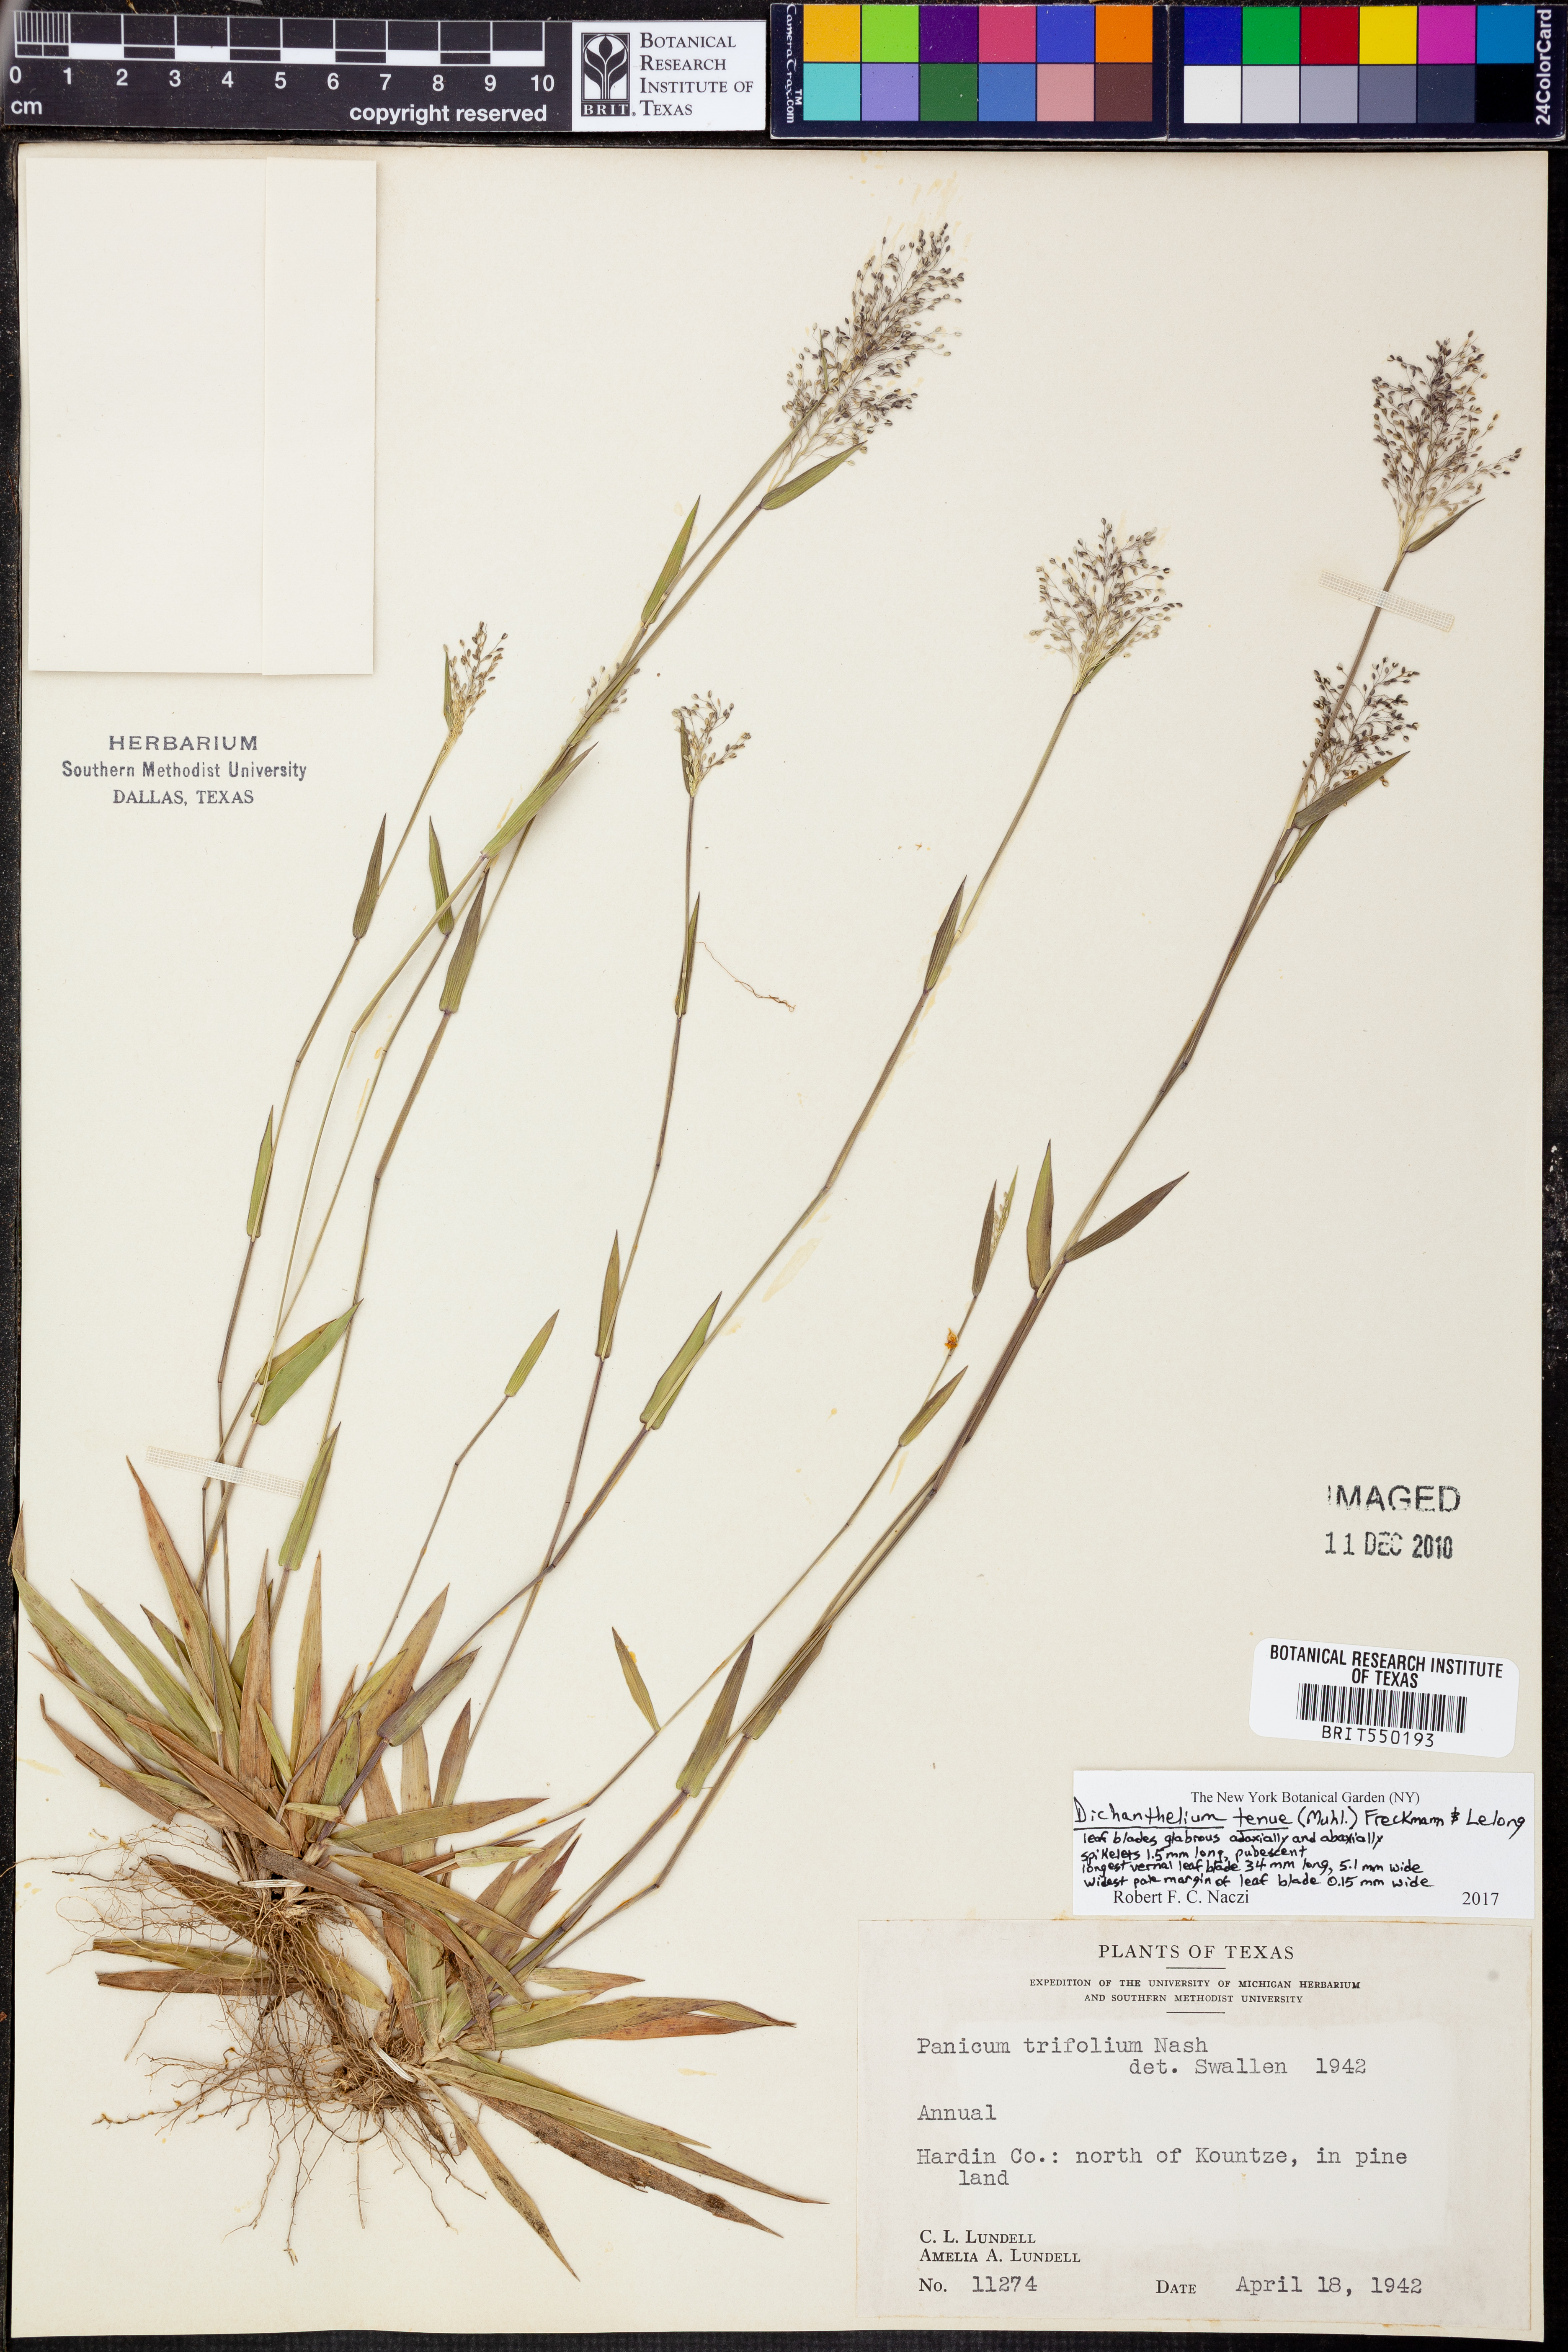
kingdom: Plantae
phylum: Tracheophyta
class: Liliopsida
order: Poales
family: Poaceae
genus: Dichanthelium
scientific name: Dichanthelium tenue
